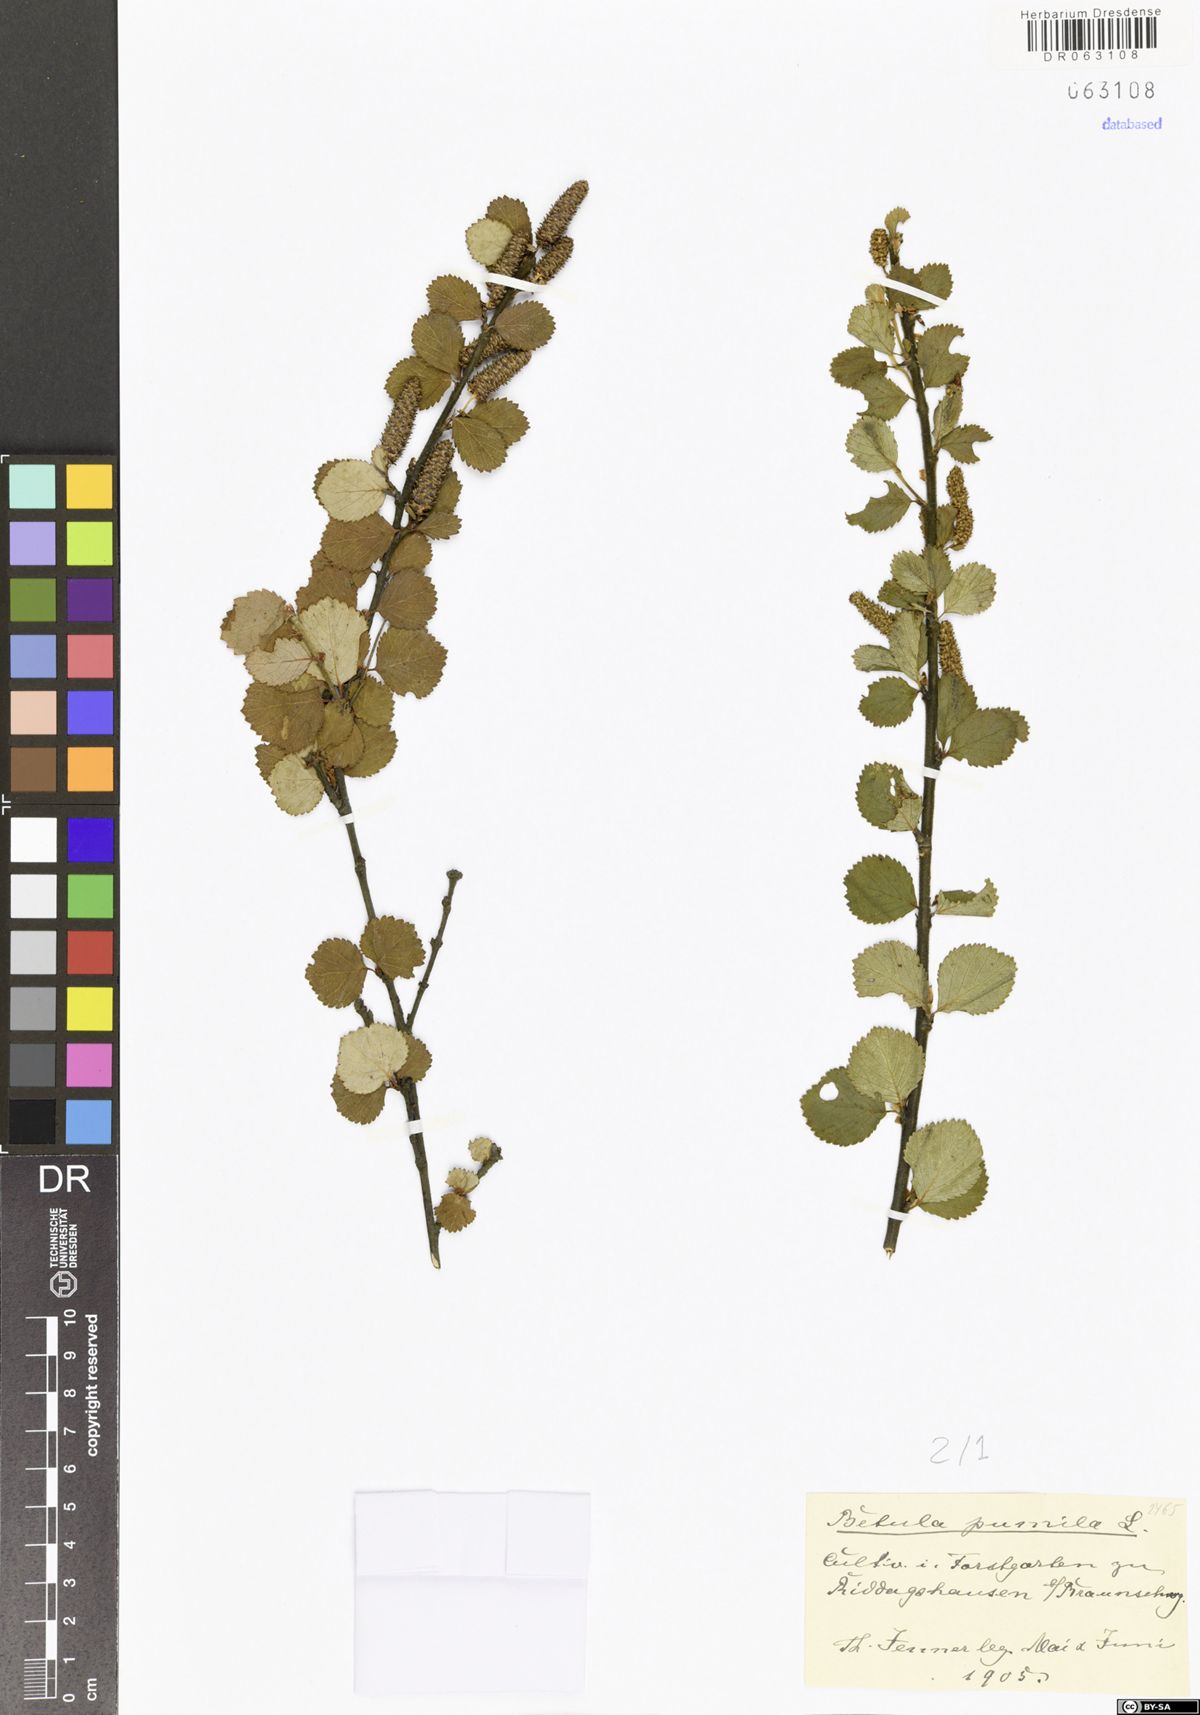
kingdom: Plantae
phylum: Tracheophyta
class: Magnoliopsida
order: Fagales
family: Betulaceae
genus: Betula
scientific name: Betula pumila
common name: Bog birch
